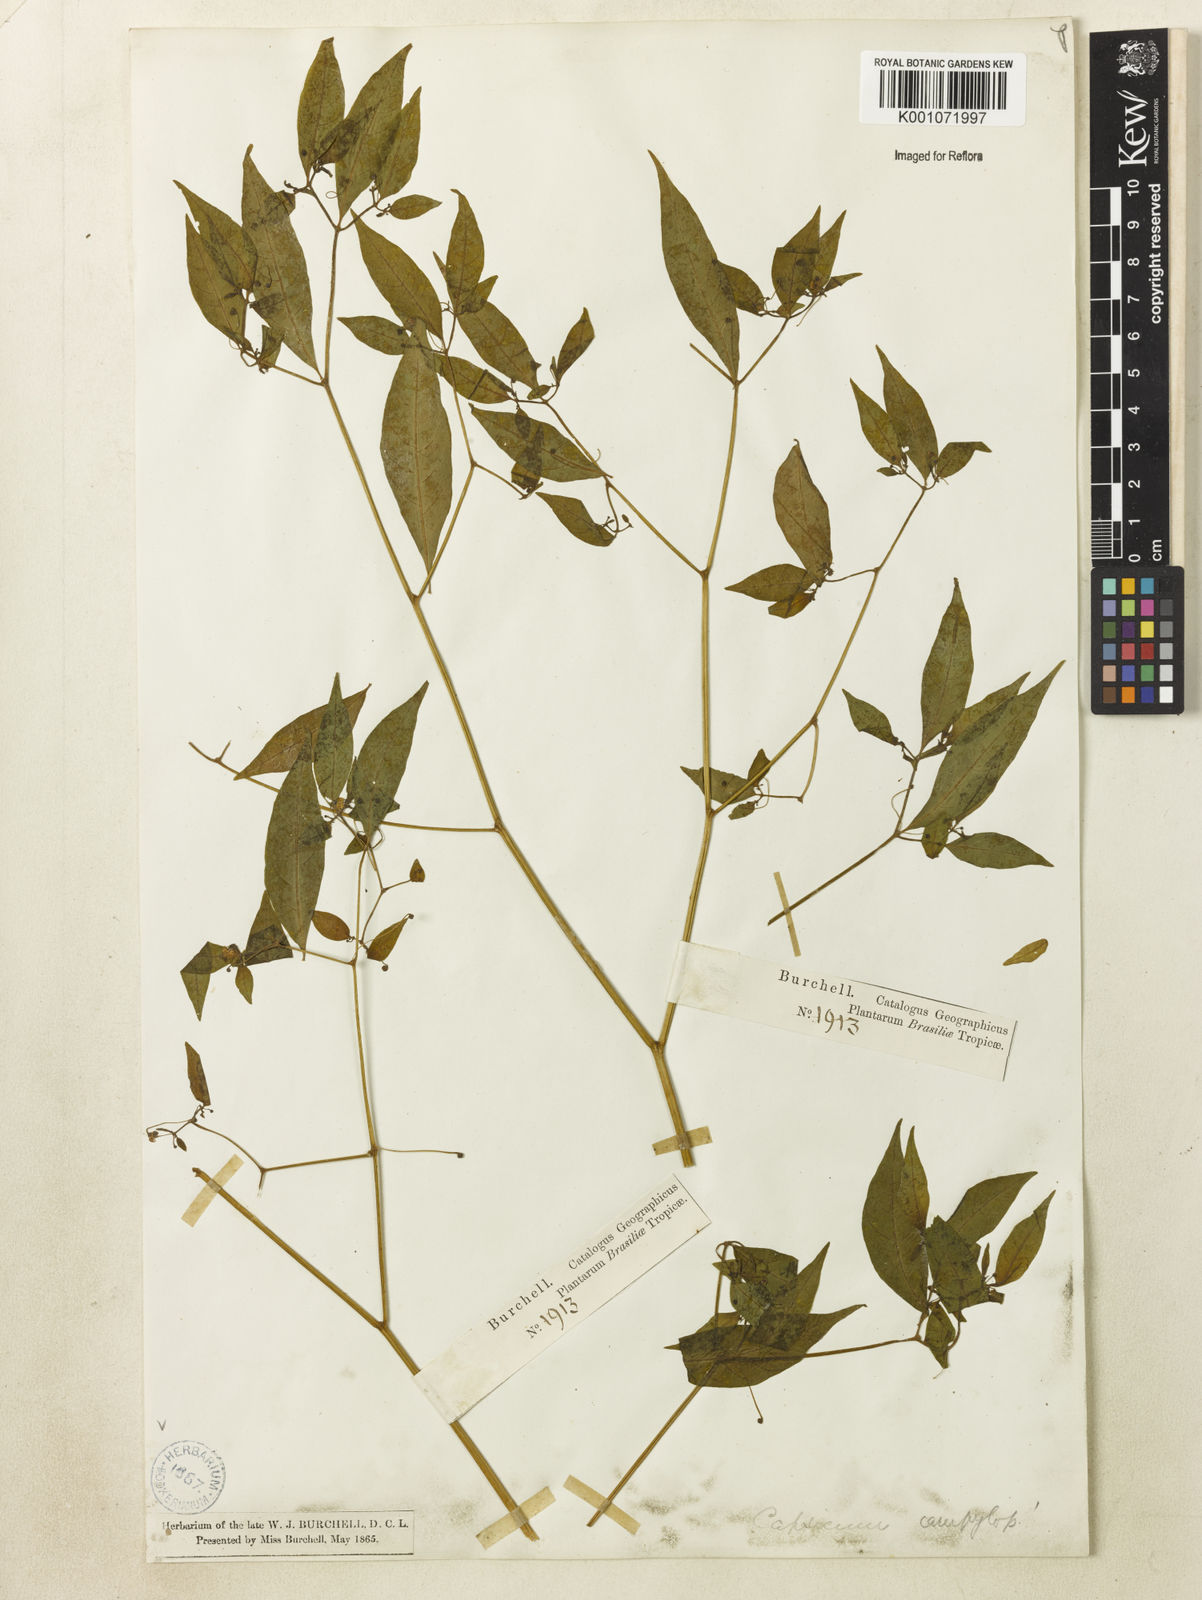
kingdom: Plantae
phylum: Tracheophyta
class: Magnoliopsida
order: Solanales
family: Solanaceae
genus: Capsicum
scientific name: Capsicum campylopodium
